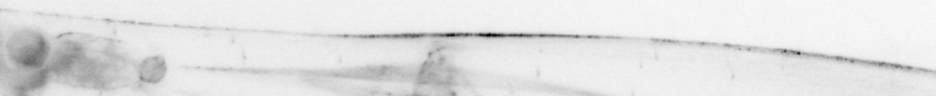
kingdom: Animalia
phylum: Chaetognatha
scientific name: Chaetognatha
